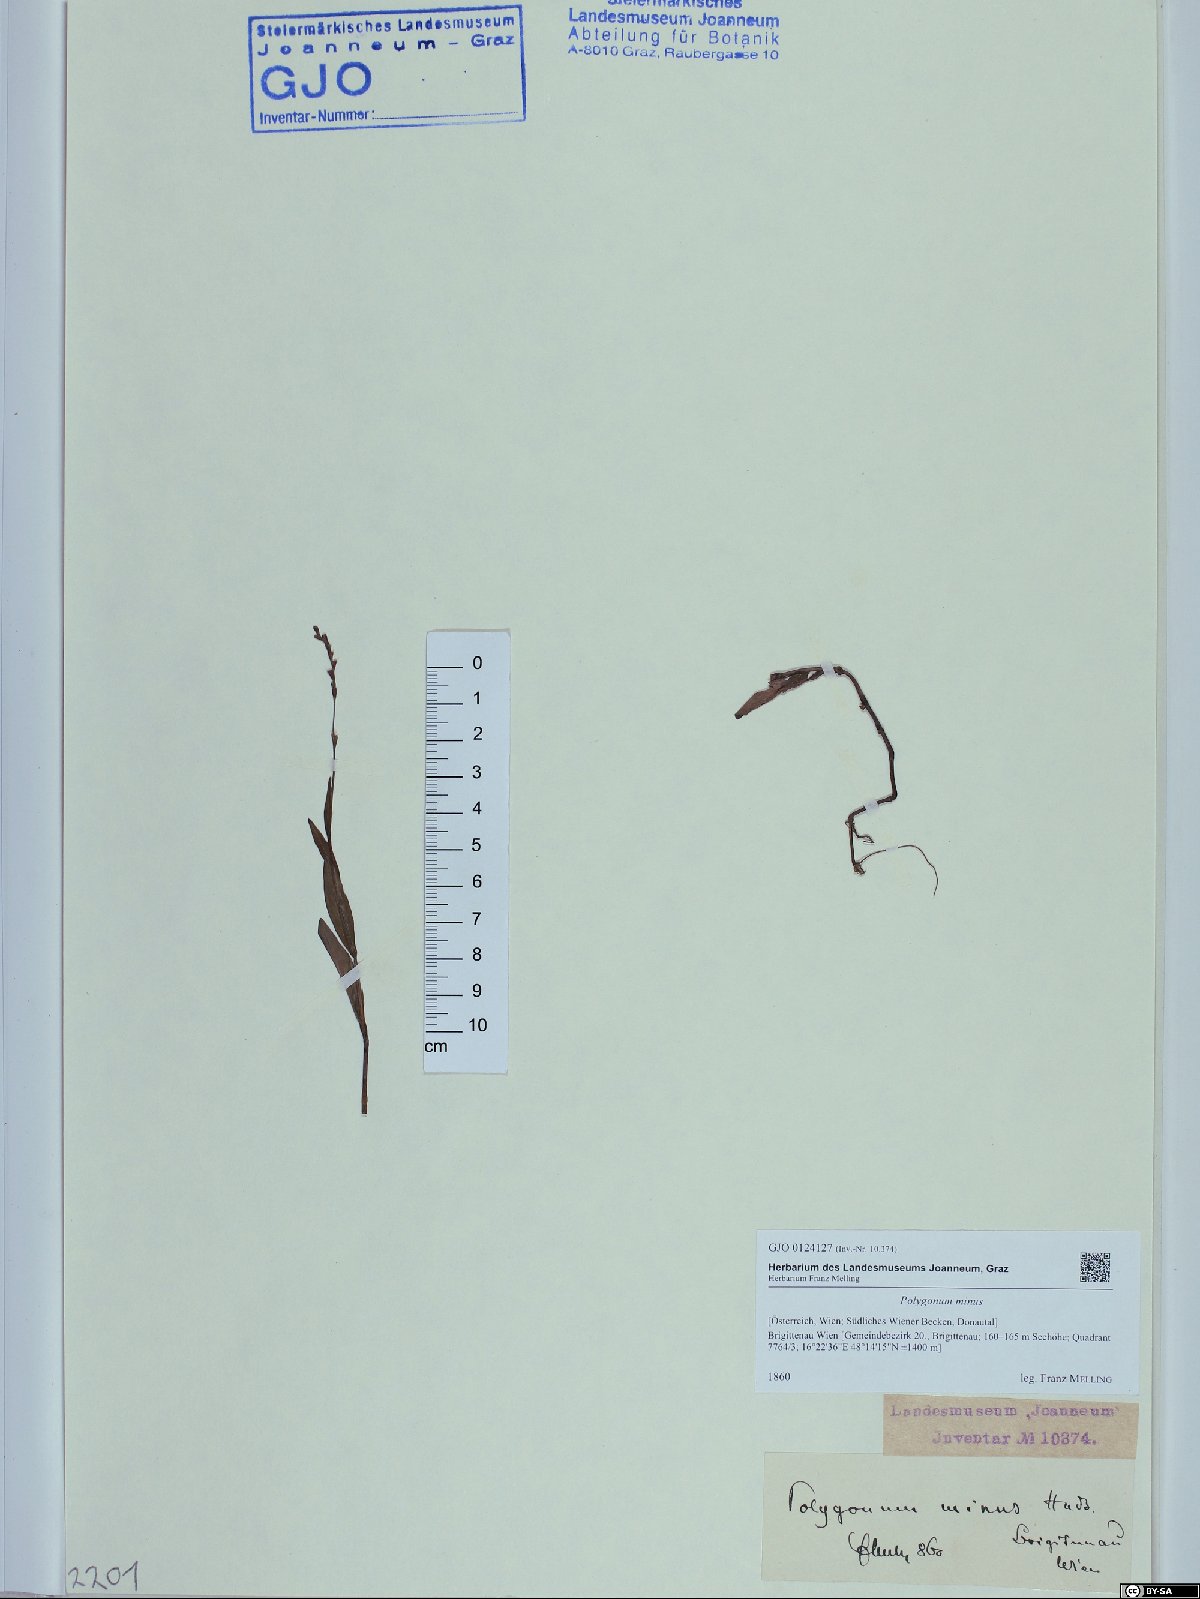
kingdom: Plantae
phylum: Tracheophyta
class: Magnoliopsida
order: Caryophyllales
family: Polygonaceae
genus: Persicaria
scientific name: Persicaria minor
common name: Small water-pepper
